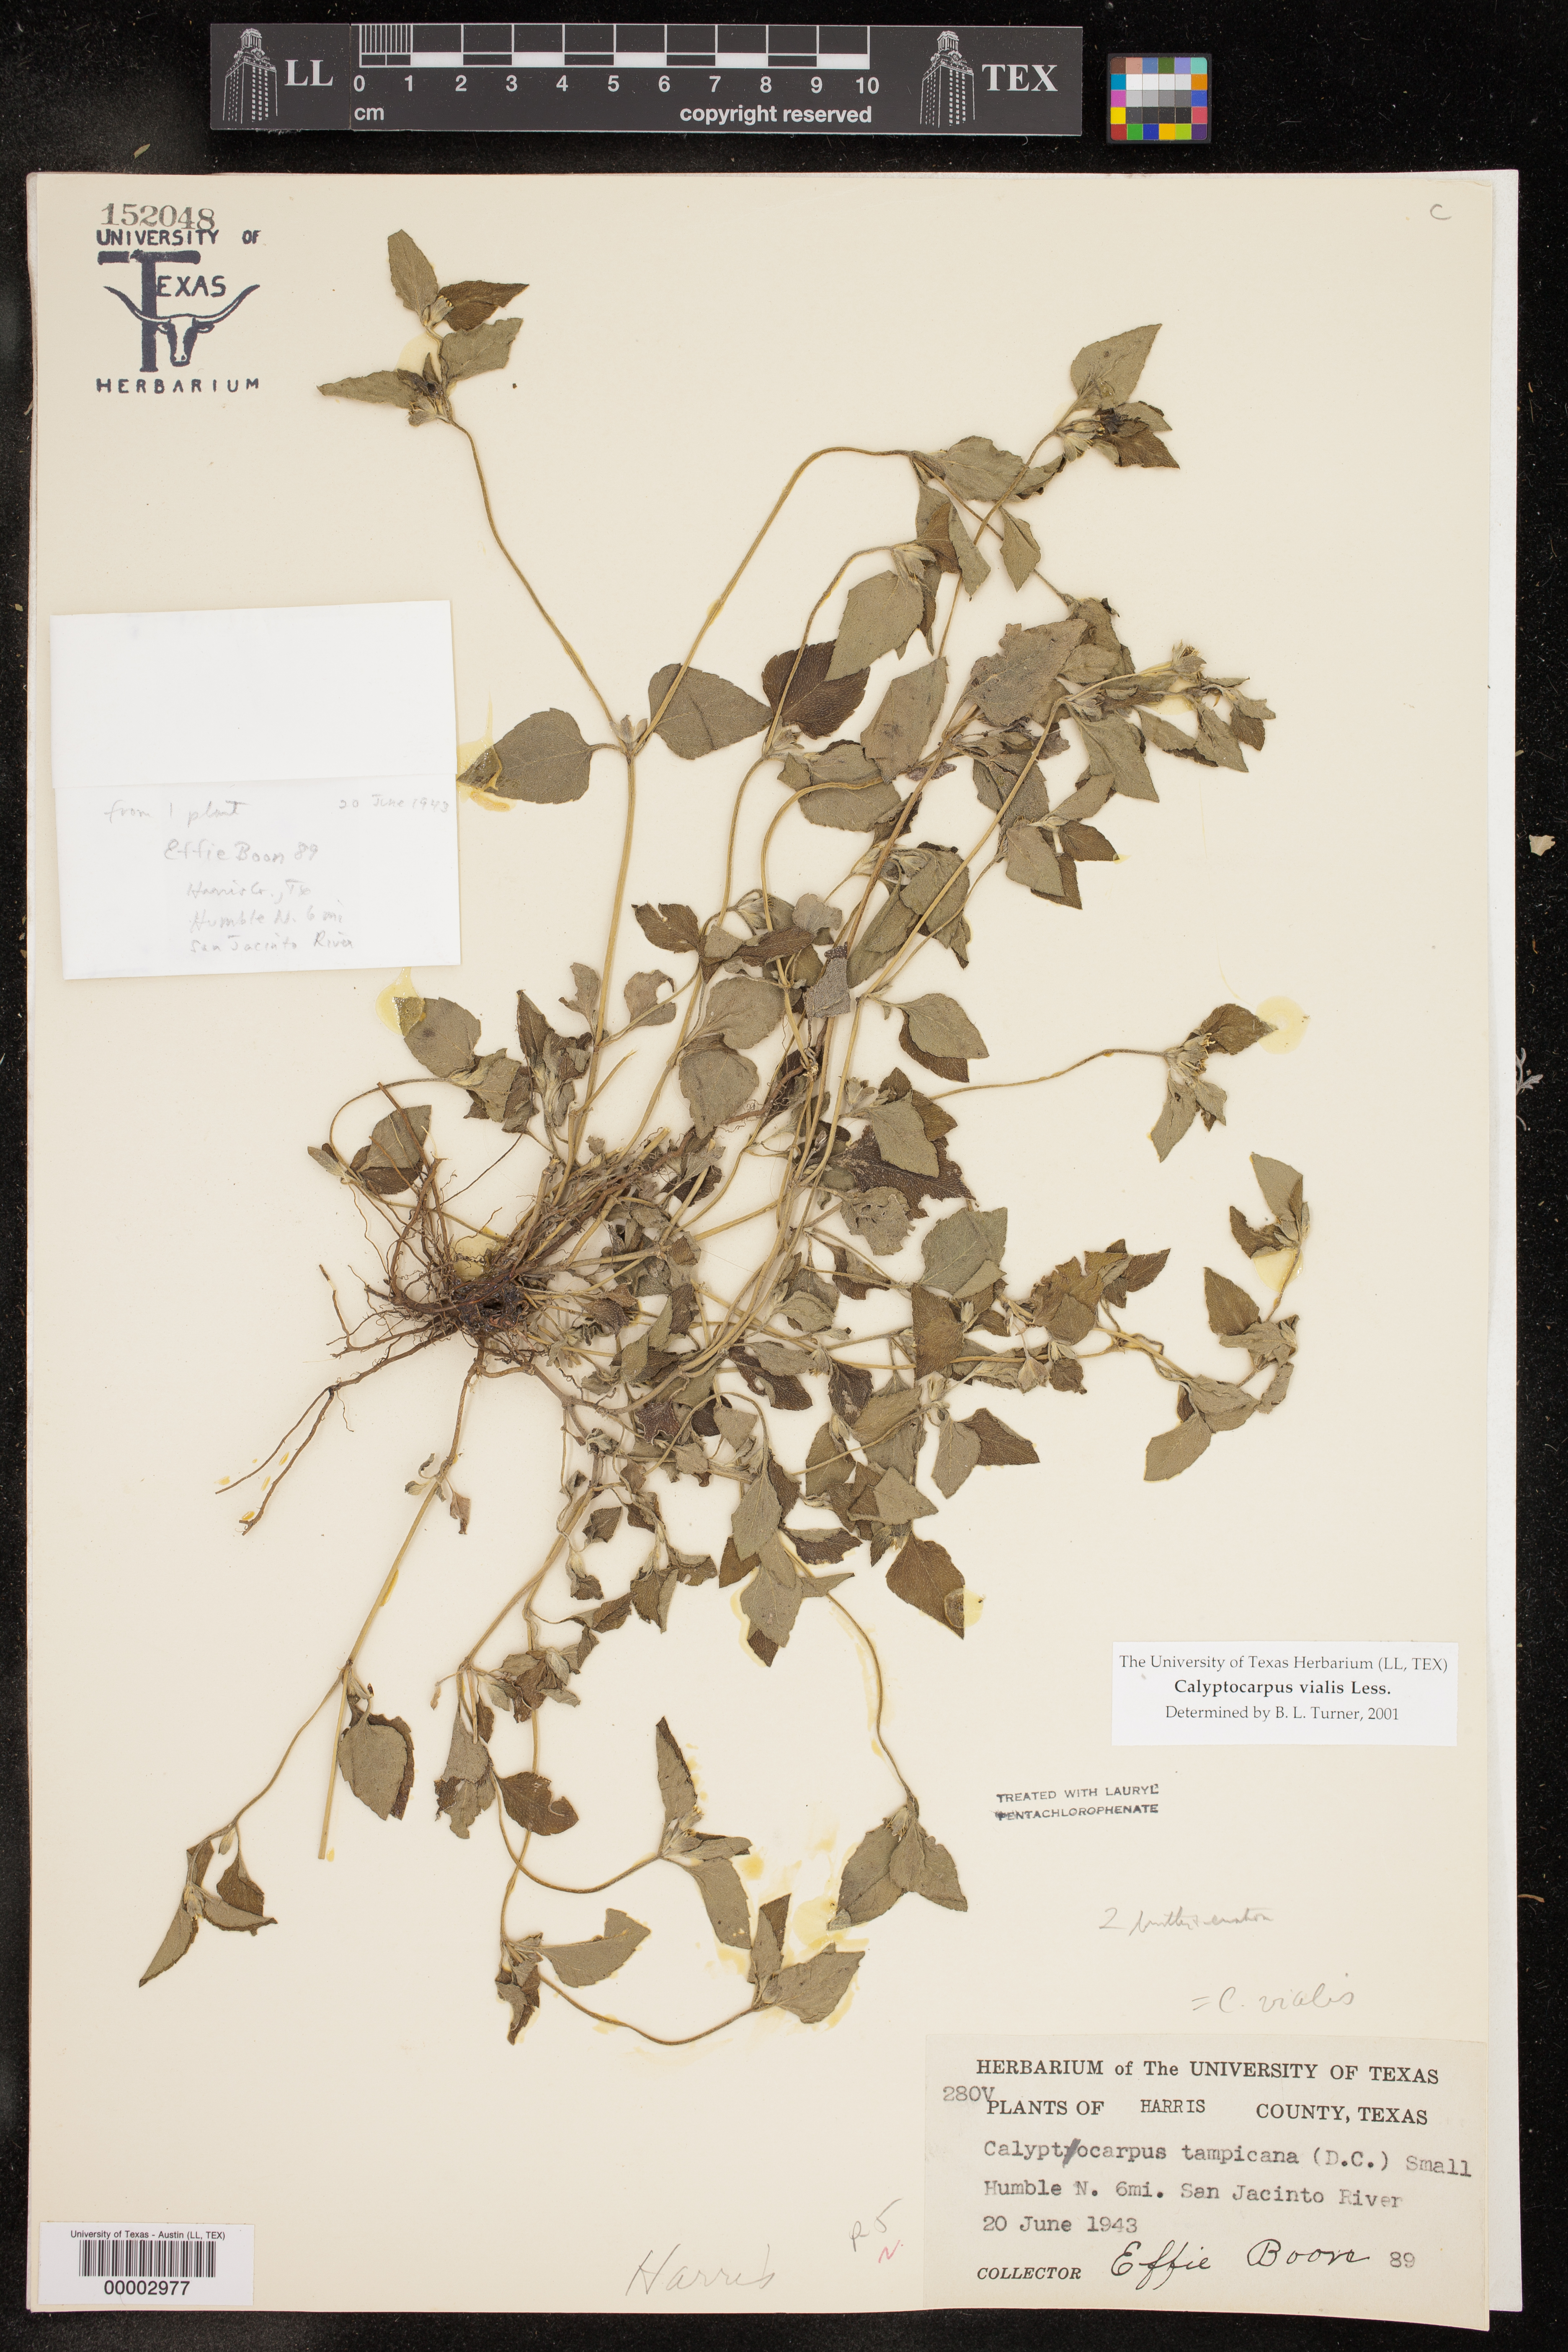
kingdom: Plantae
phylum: Tracheophyta
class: Magnoliopsida
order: Asterales
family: Asteraceae
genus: Calyptocarpus
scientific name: Calyptocarpus vialis
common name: Straggler daisy
